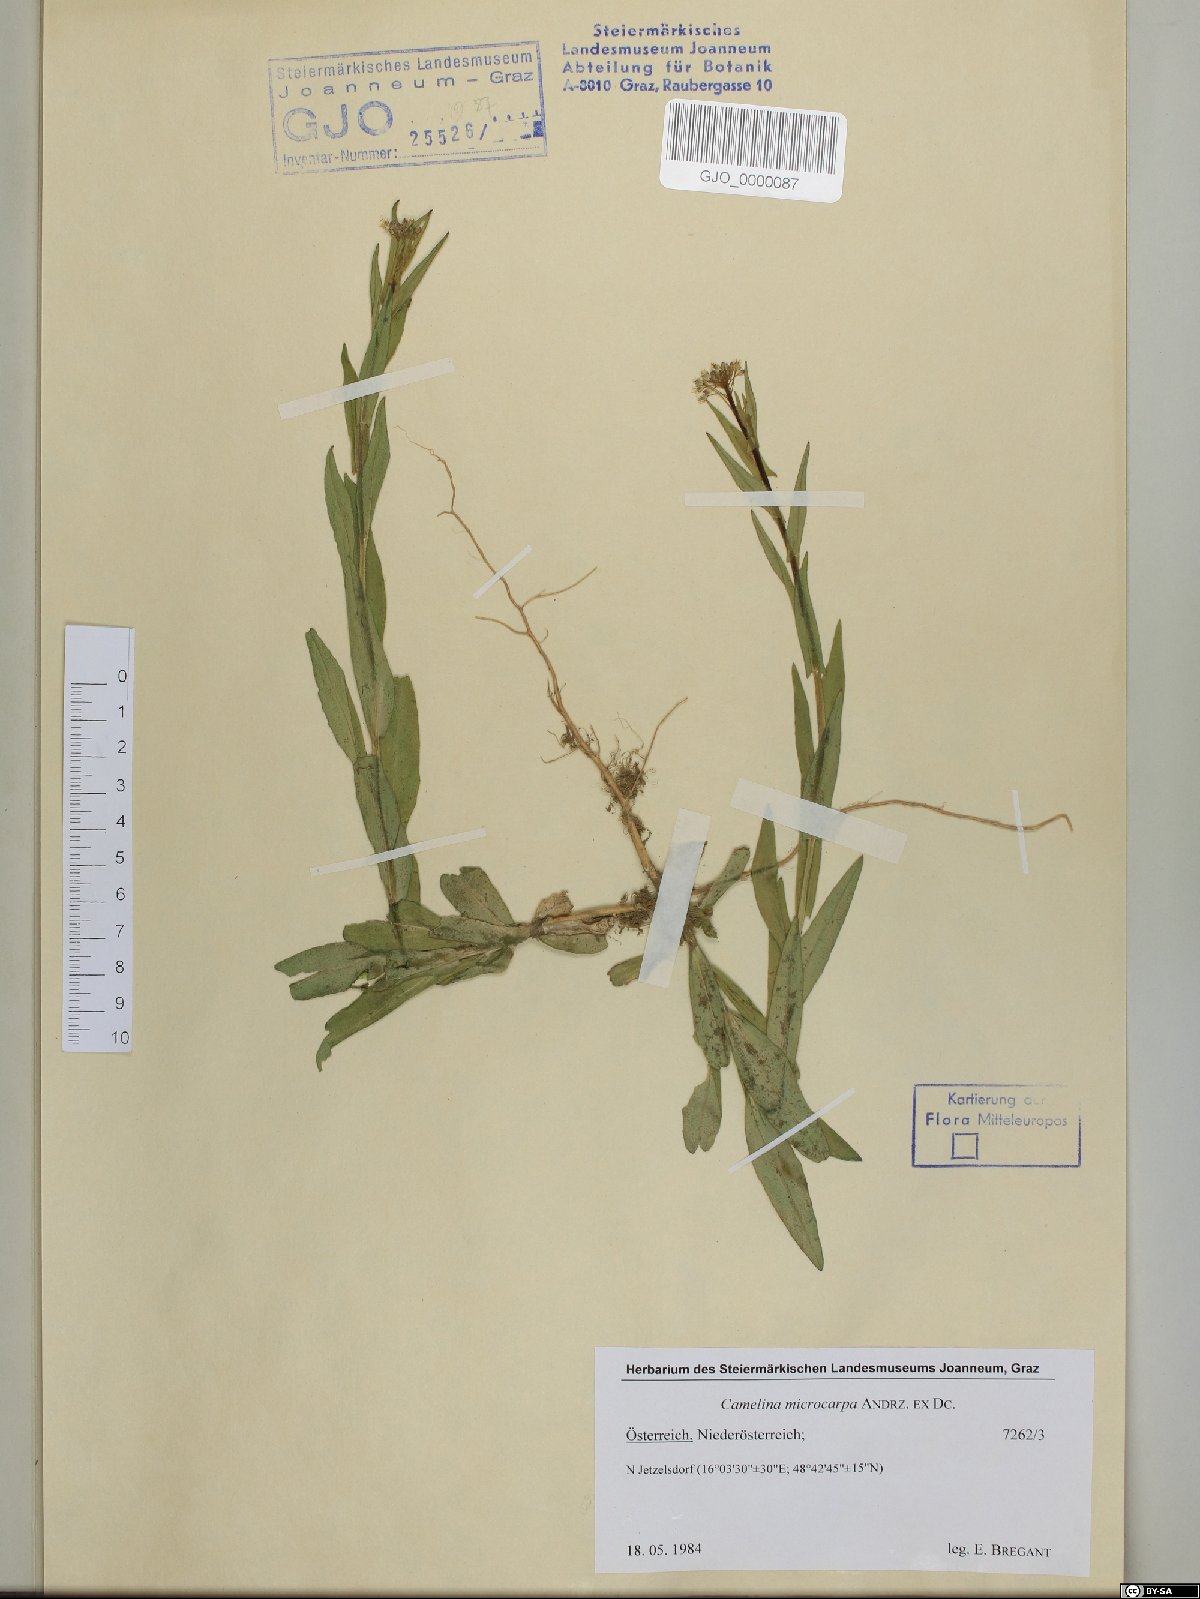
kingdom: Plantae
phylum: Tracheophyta
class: Magnoliopsida
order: Brassicales
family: Brassicaceae
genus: Camelina
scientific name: Camelina microcarpa
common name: Lesser gold-of-pleasure
